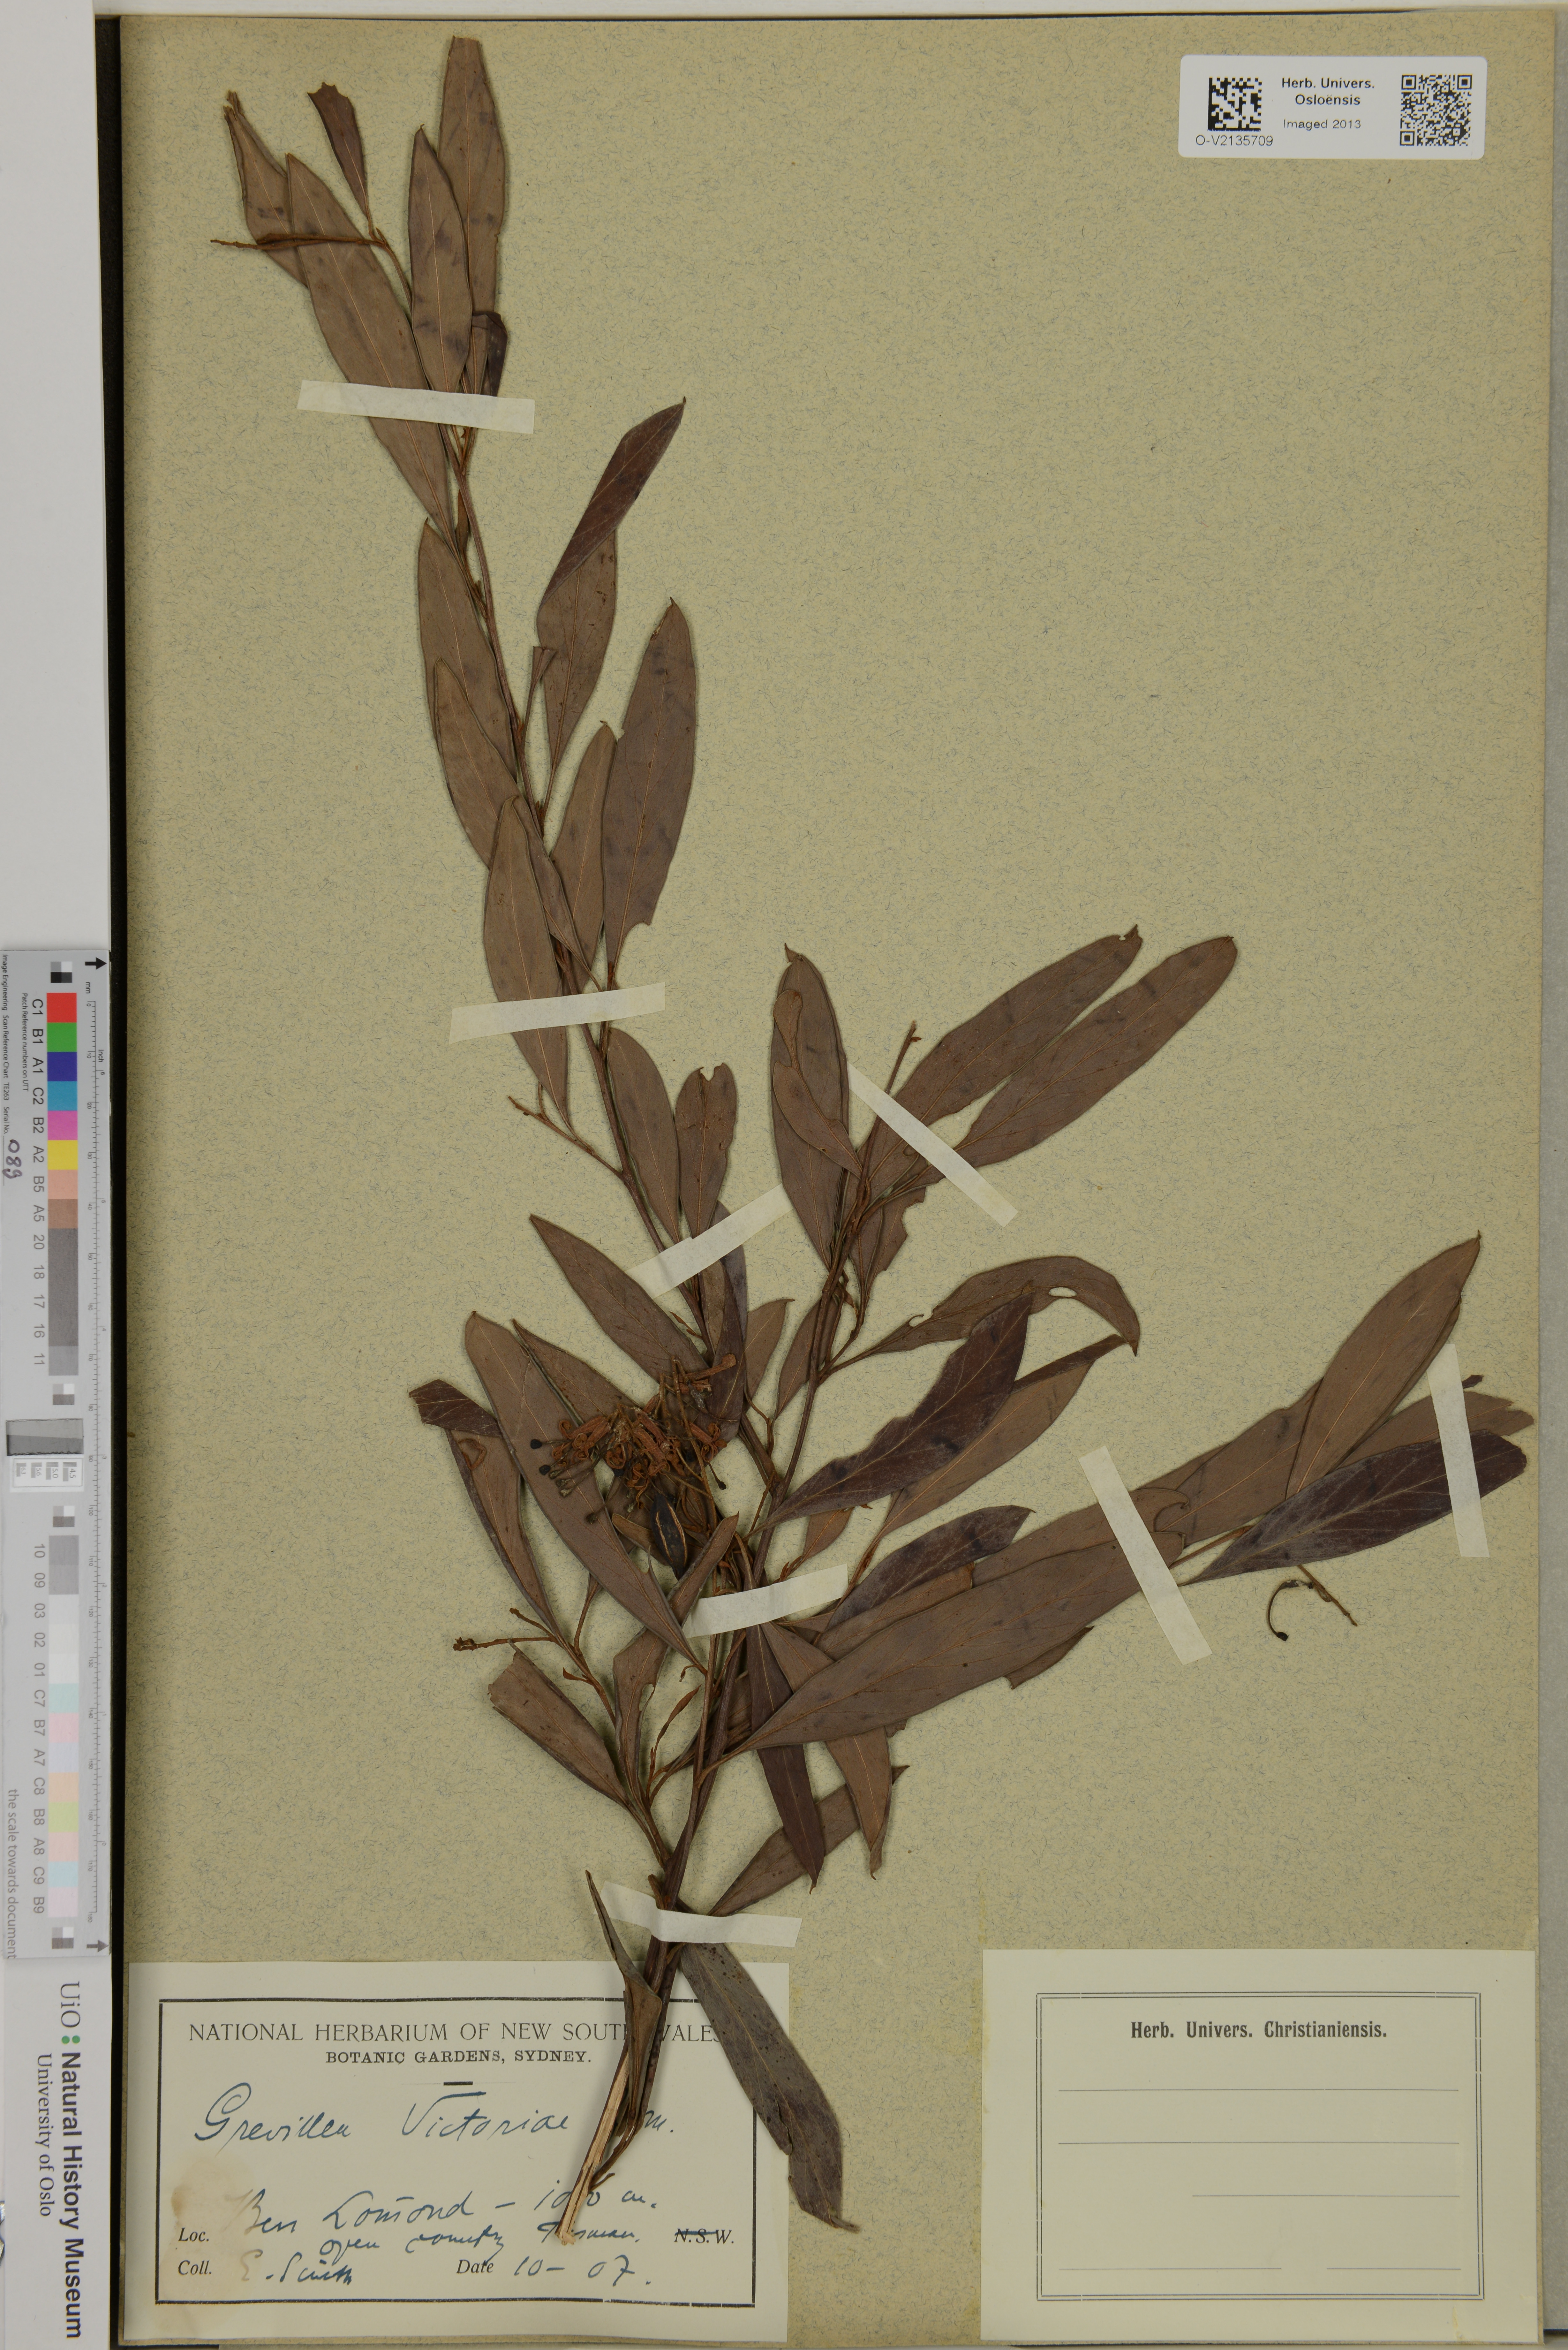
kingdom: Plantae
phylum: Tracheophyta
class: Magnoliopsida
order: Proteales
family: Proteaceae
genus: Grevillea
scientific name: Grevillea victoriae
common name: Royal grevillea
